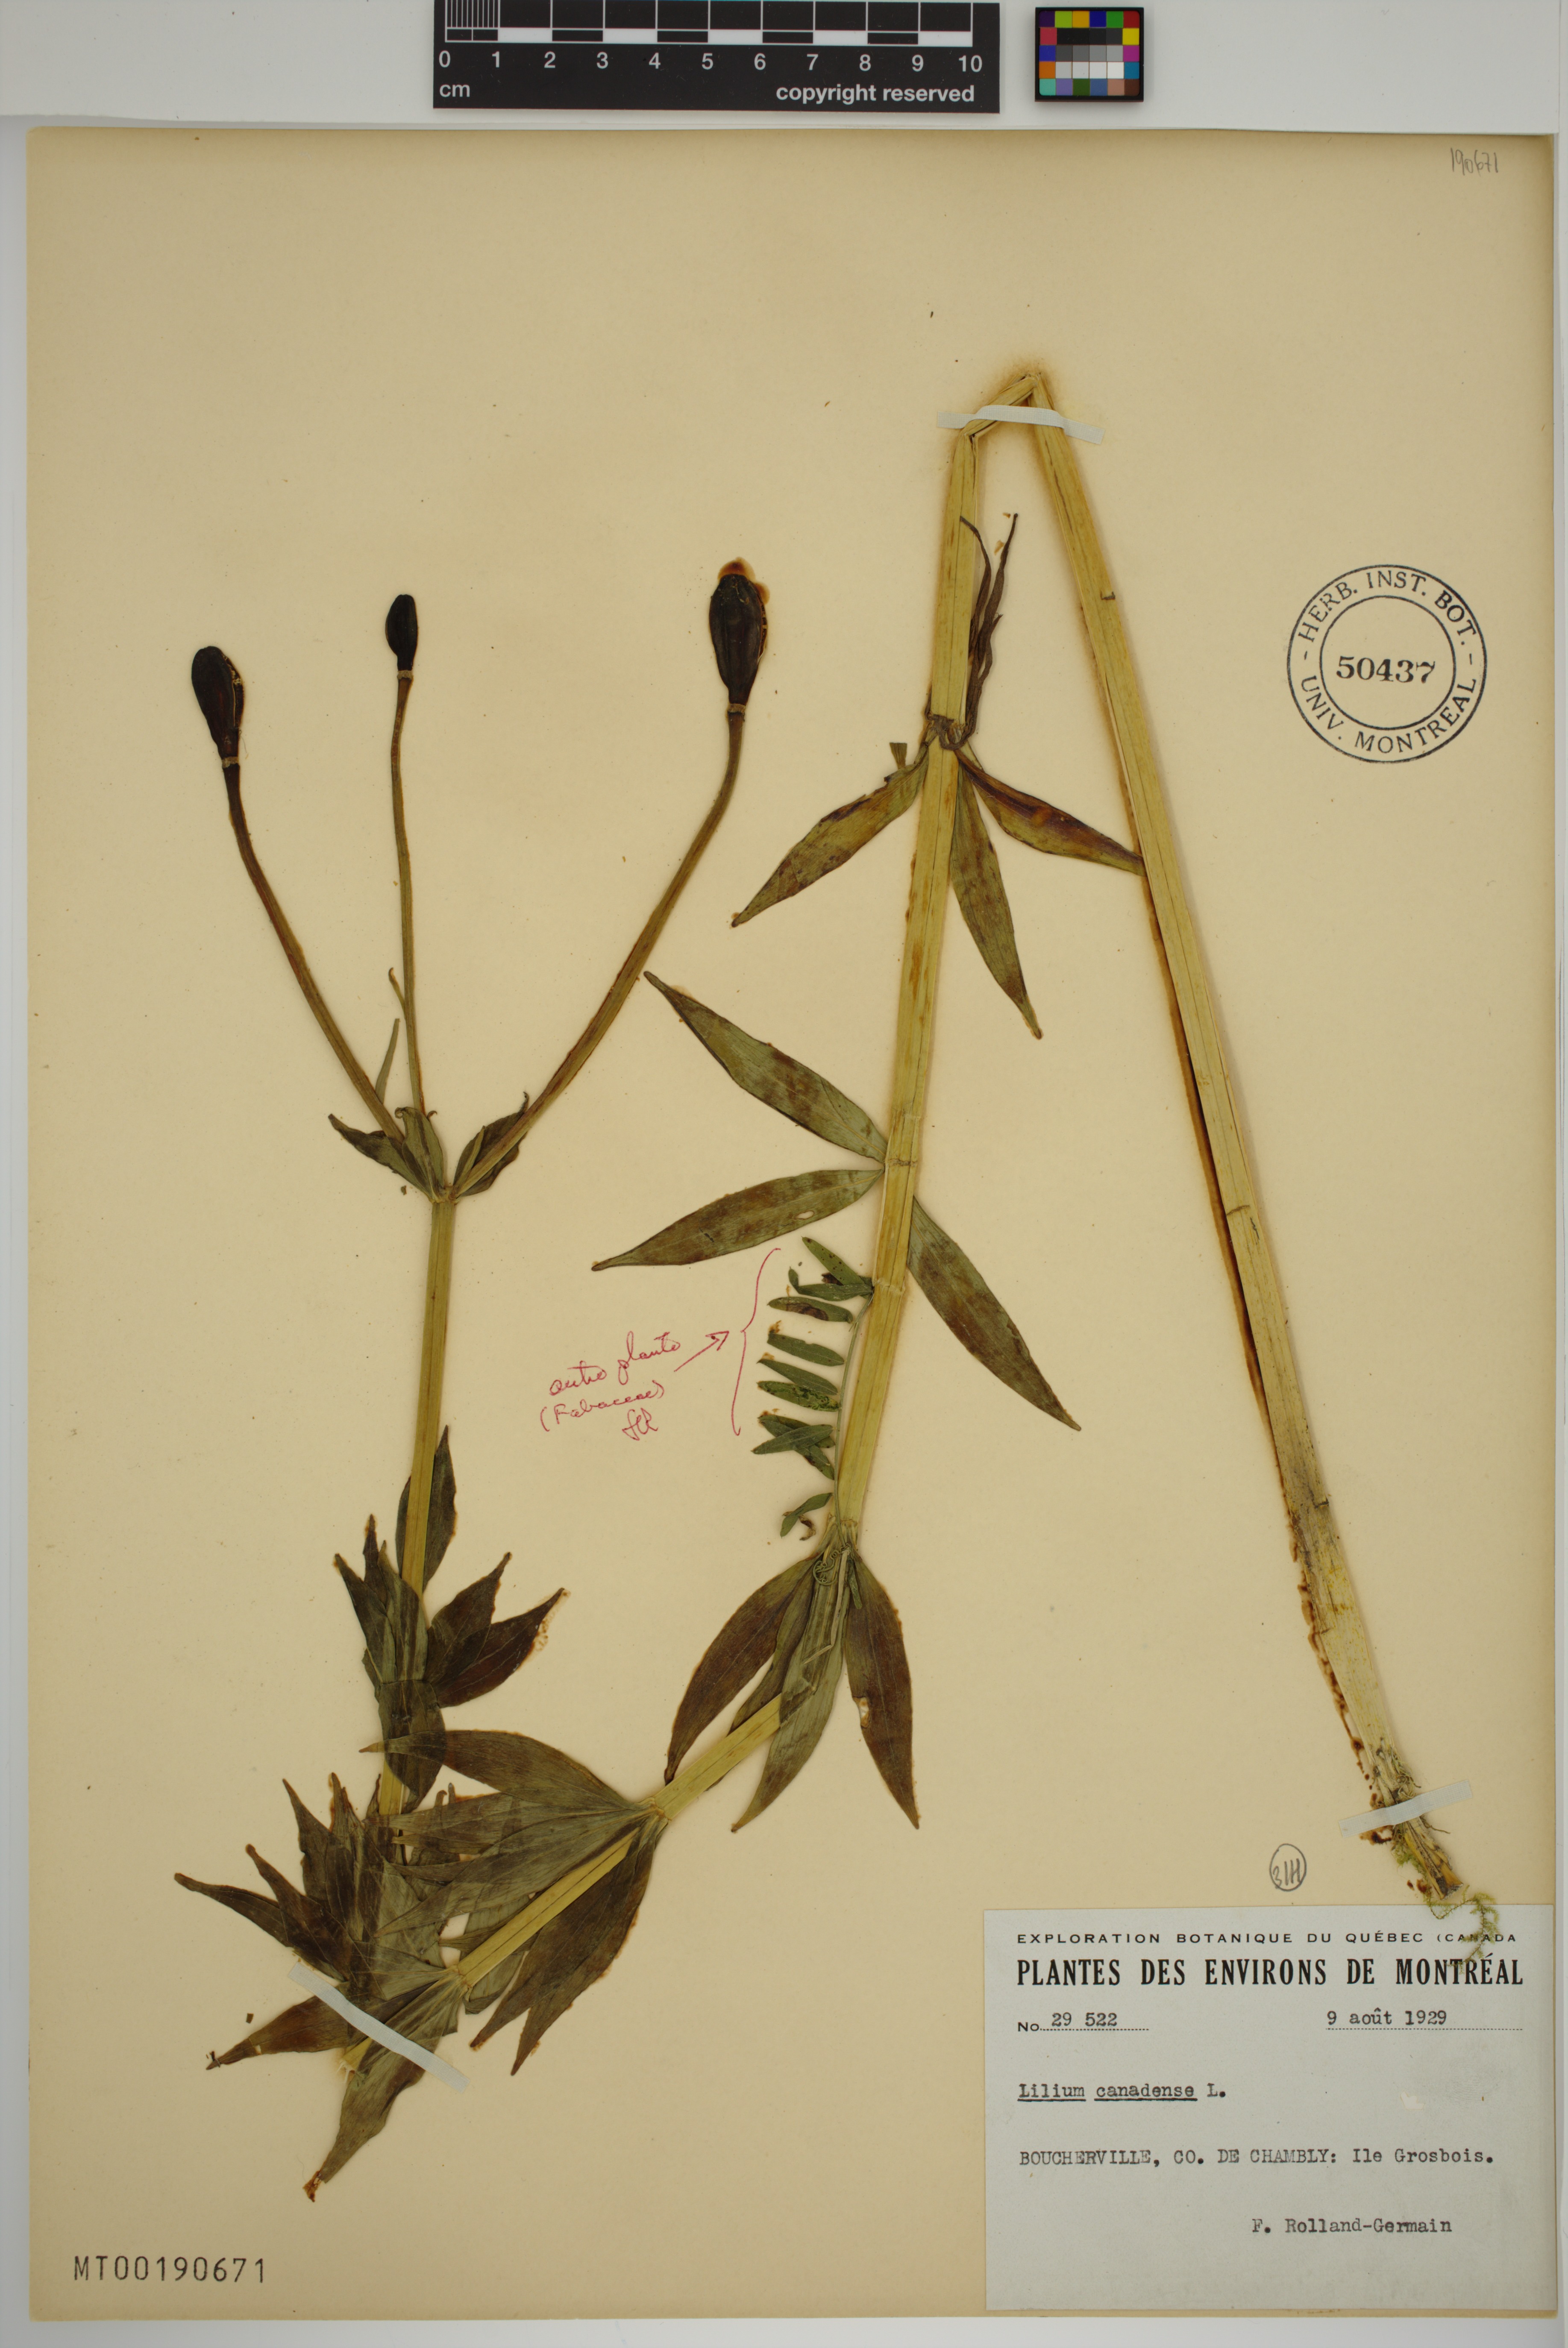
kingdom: Plantae
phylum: Tracheophyta
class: Liliopsida
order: Liliales
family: Liliaceae
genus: Lilium
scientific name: Lilium canadense
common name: Canada lily
